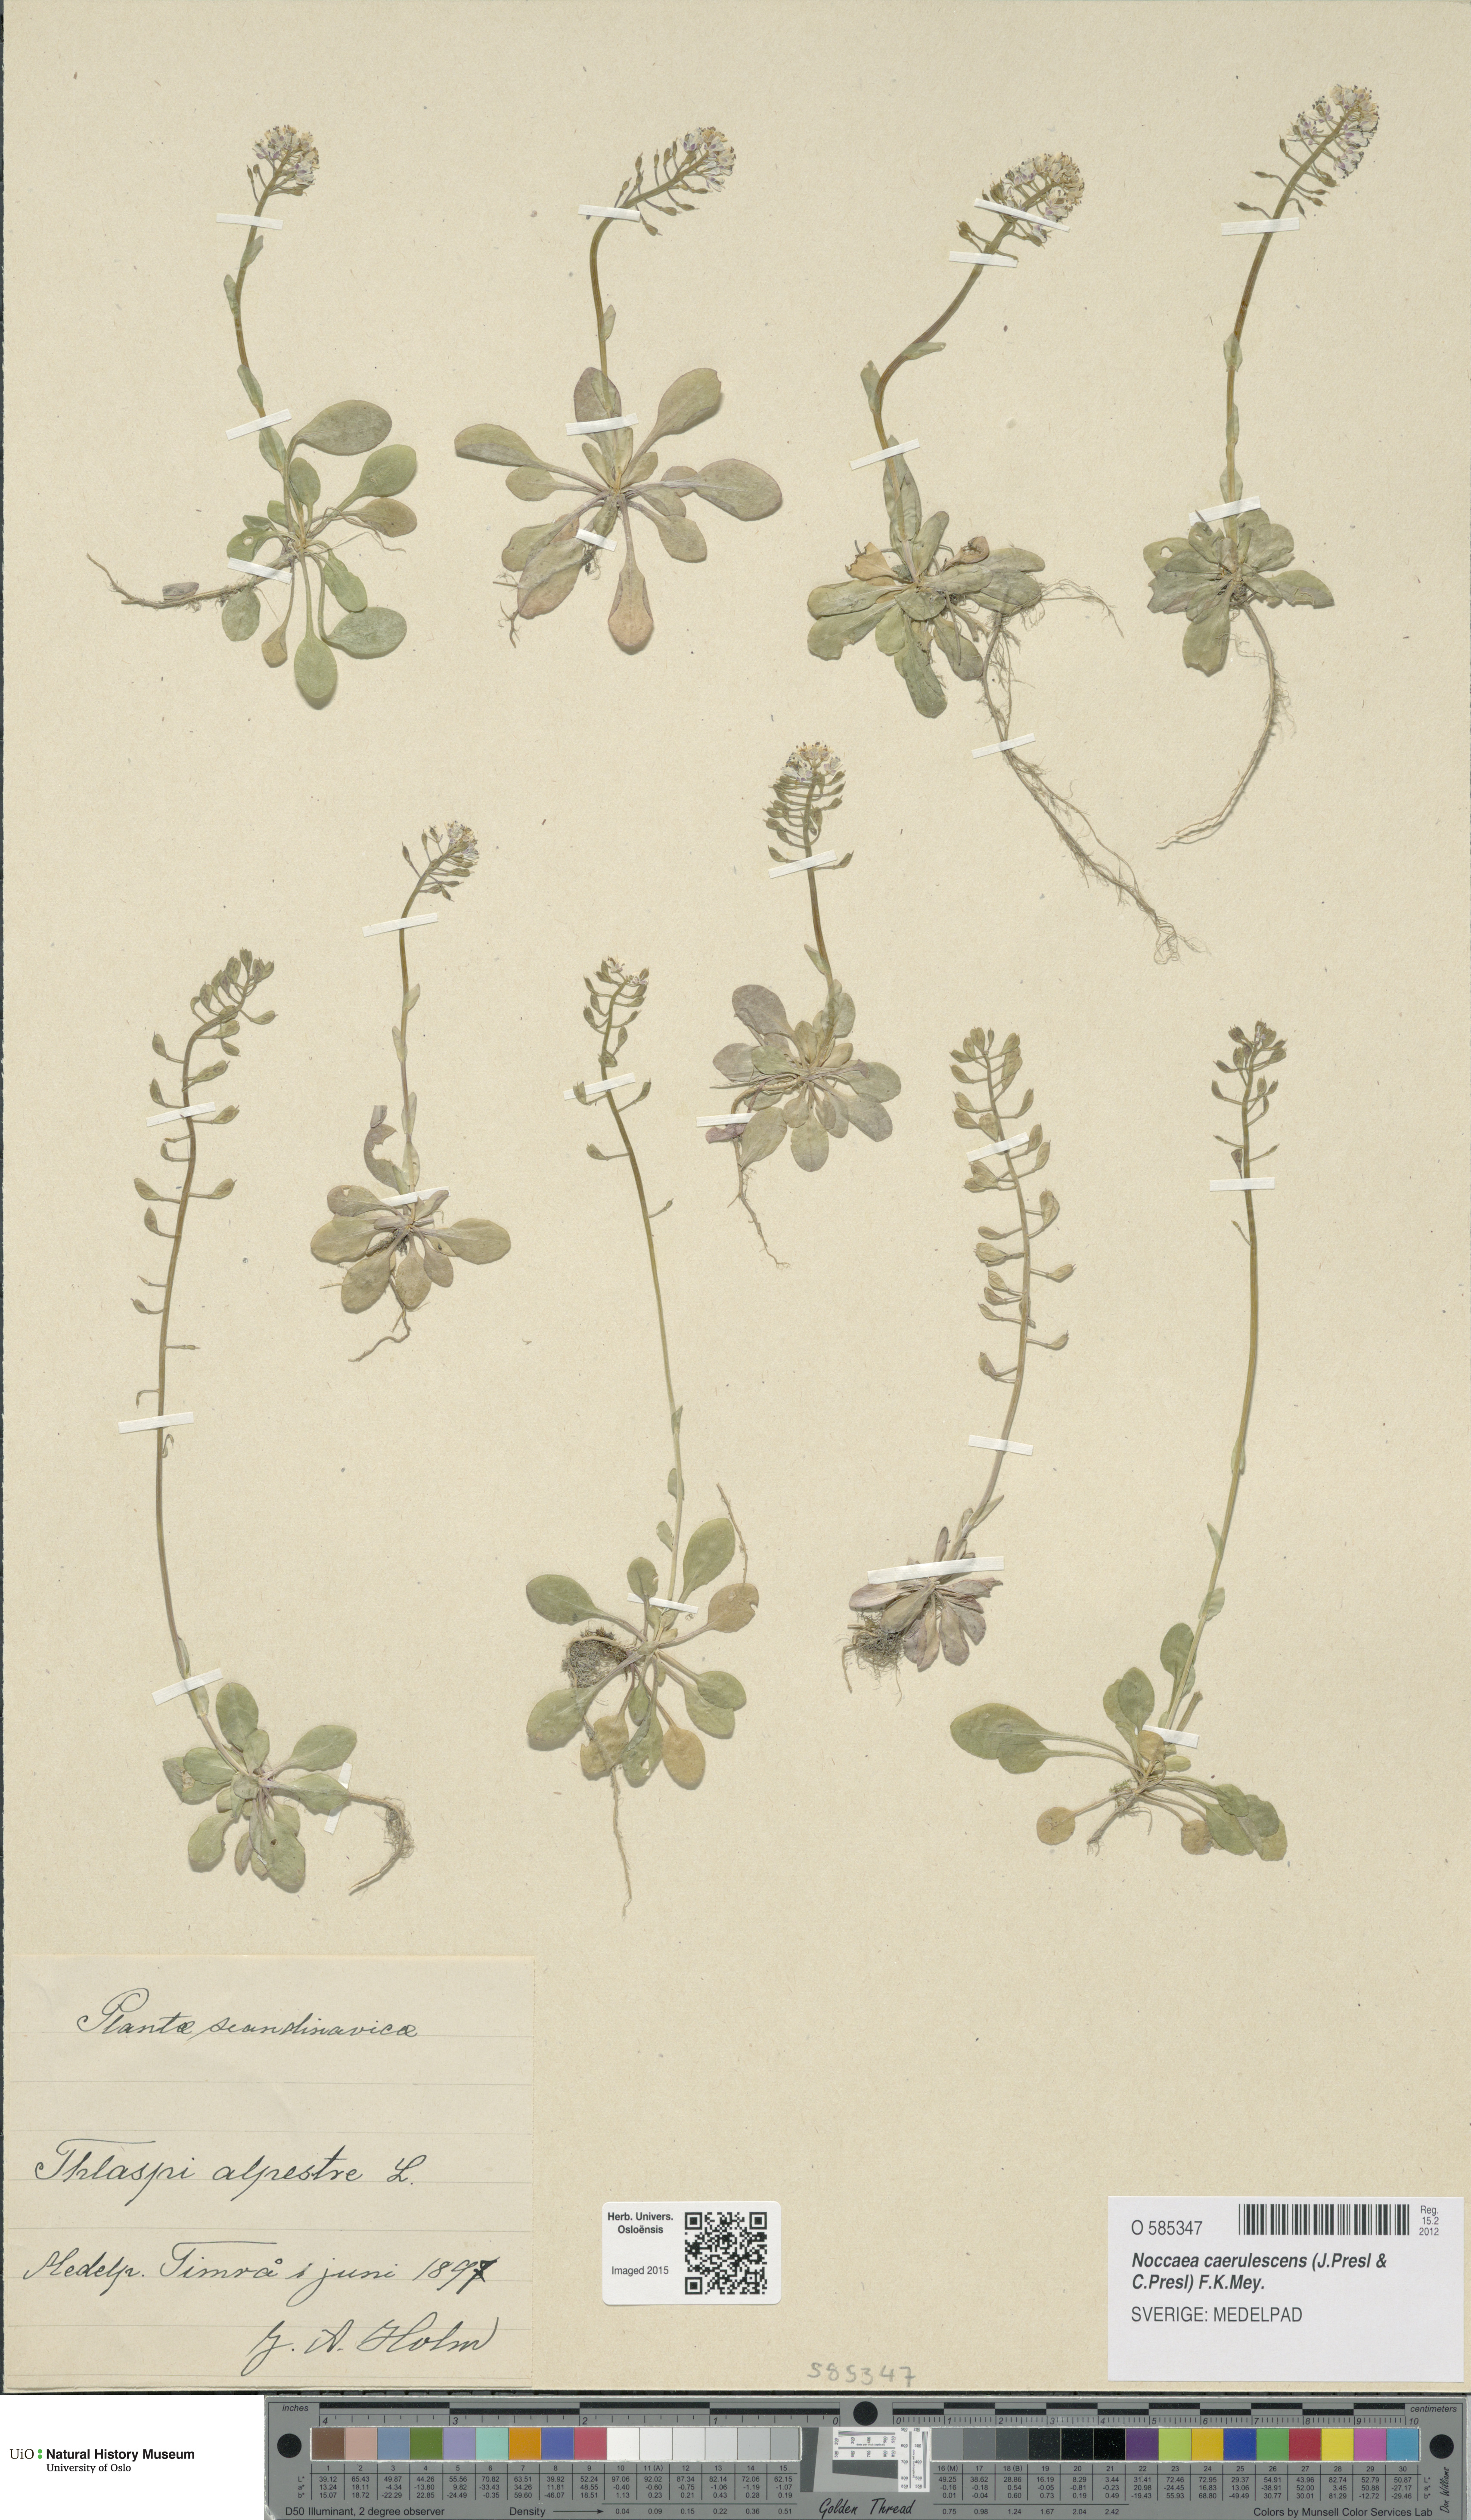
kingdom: Plantae
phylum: Tracheophyta
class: Magnoliopsida
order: Brassicales
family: Brassicaceae
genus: Noccaea
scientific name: Noccaea caerulescens
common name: Alpine pennycress
